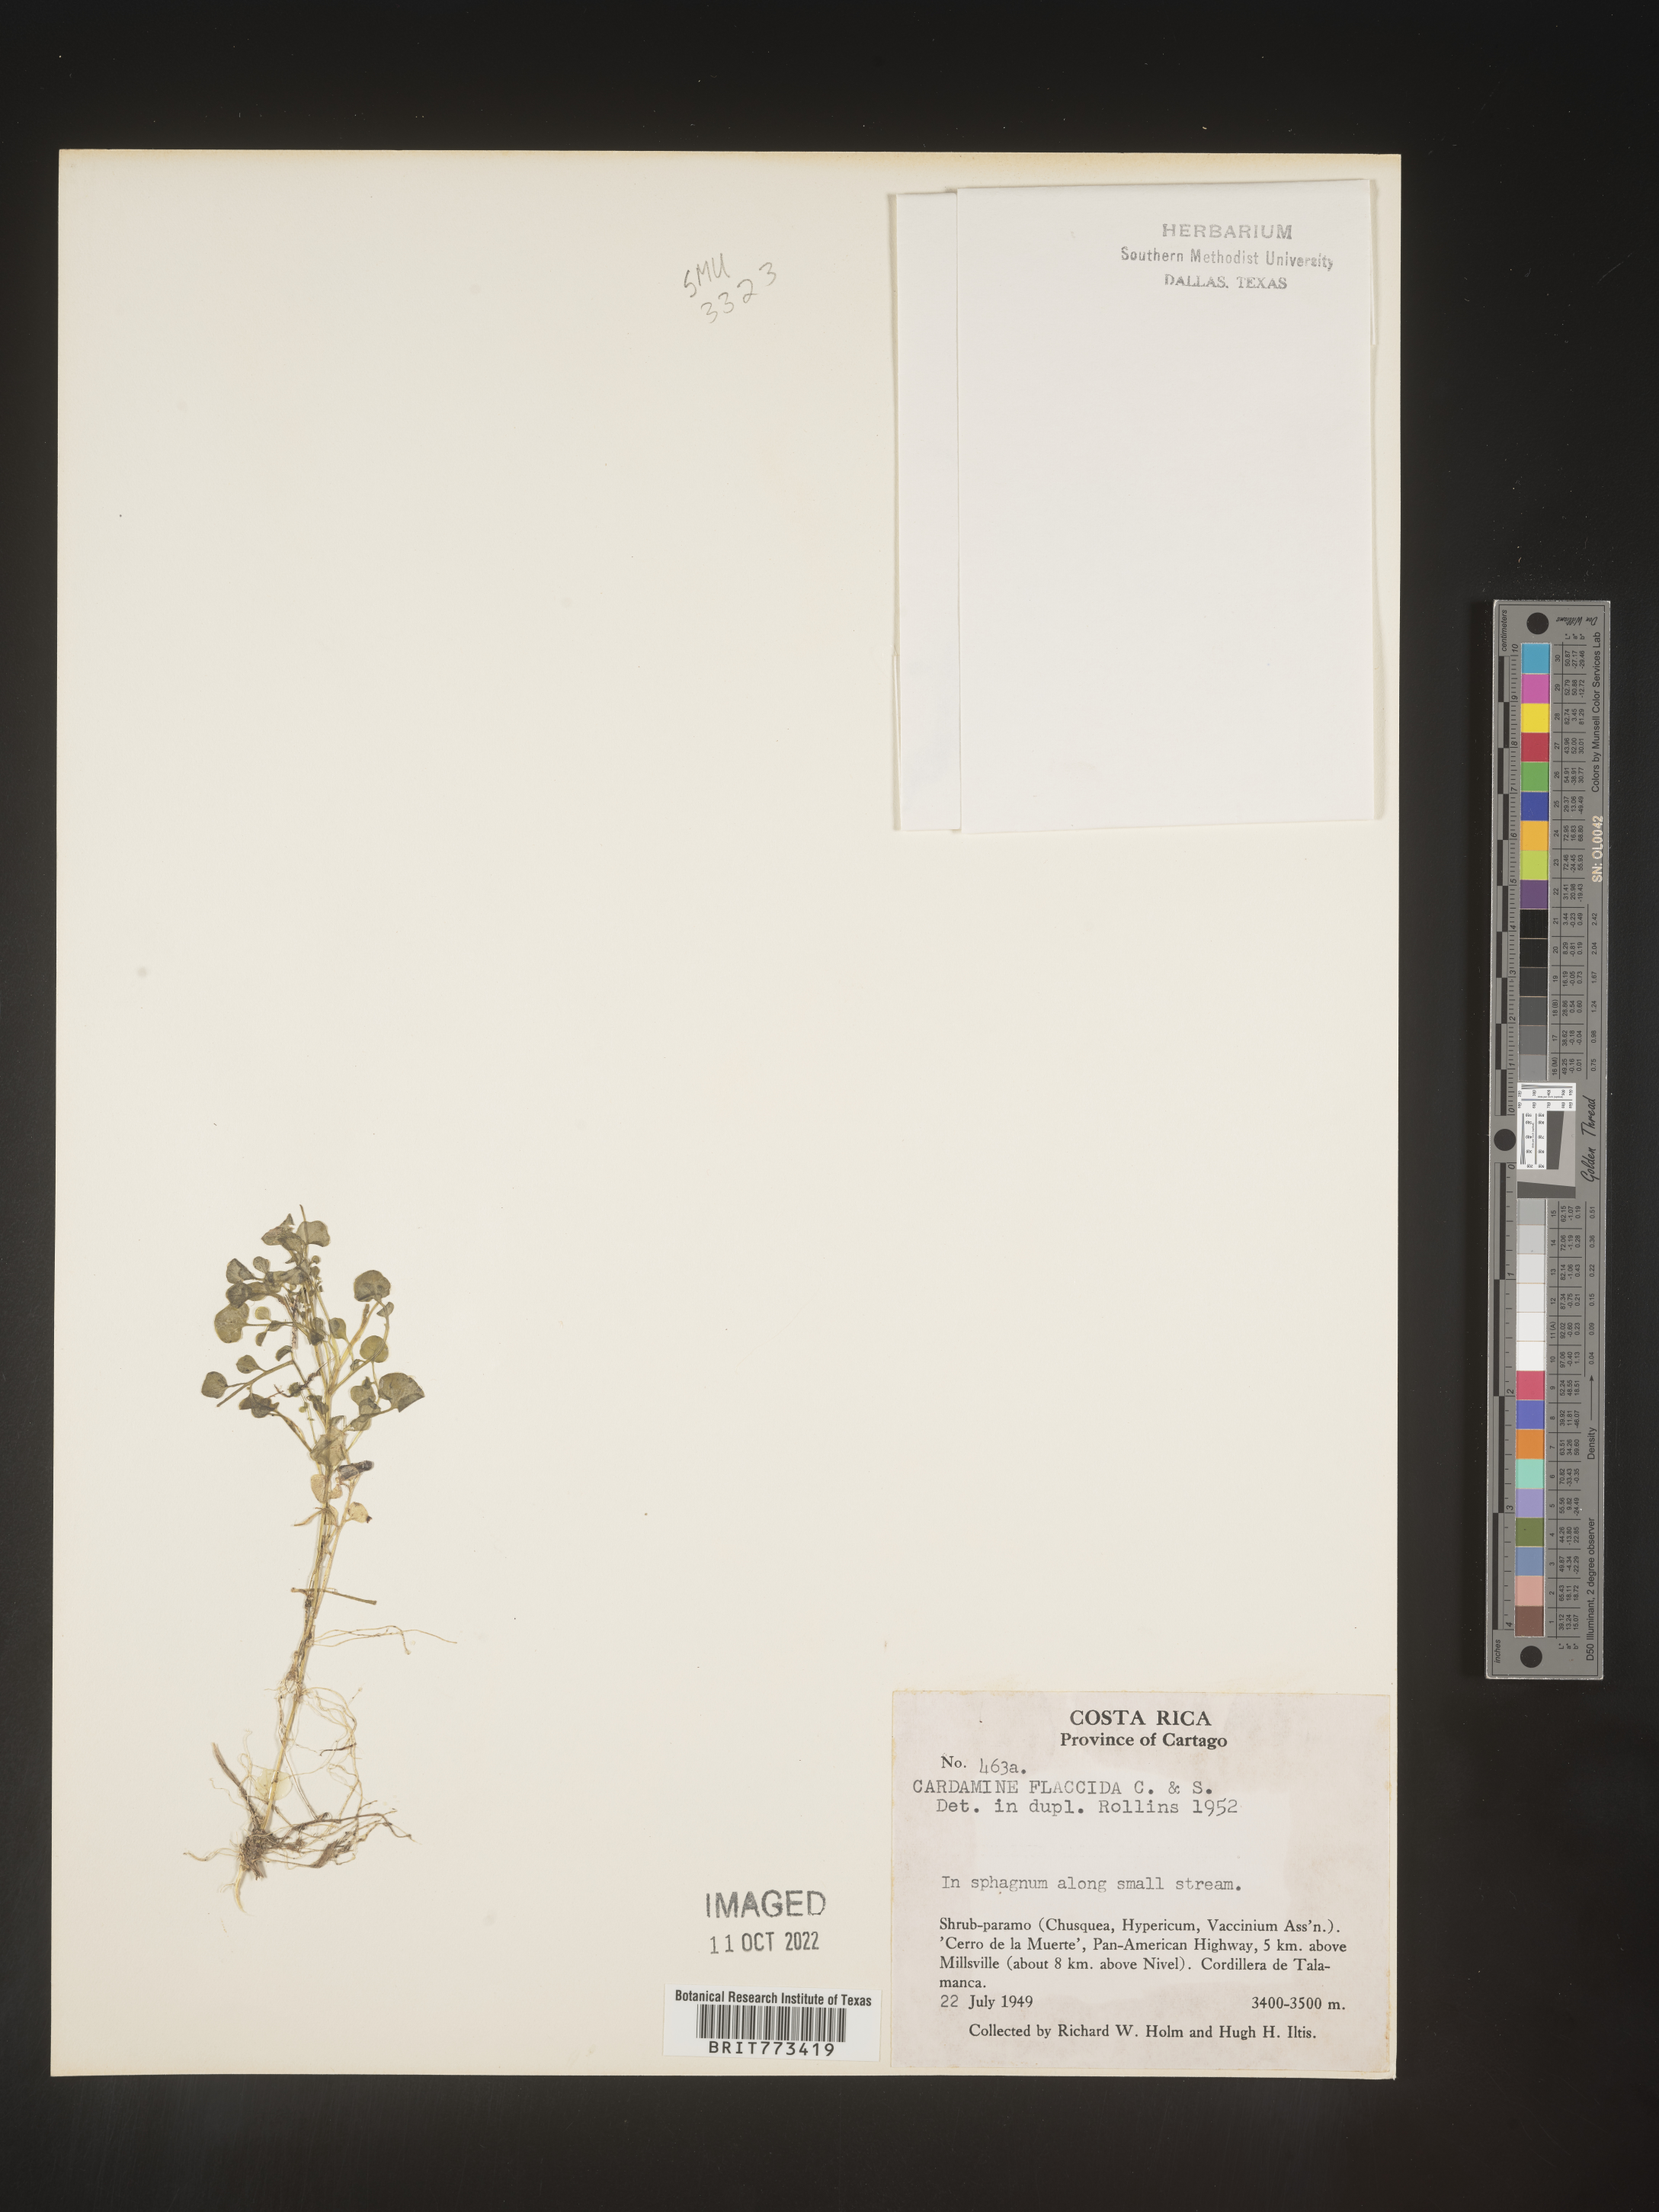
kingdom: Plantae
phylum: Tracheophyta
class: Magnoliopsida
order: Brassicales
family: Brassicaceae
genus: Cardamine
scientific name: Cardamine
